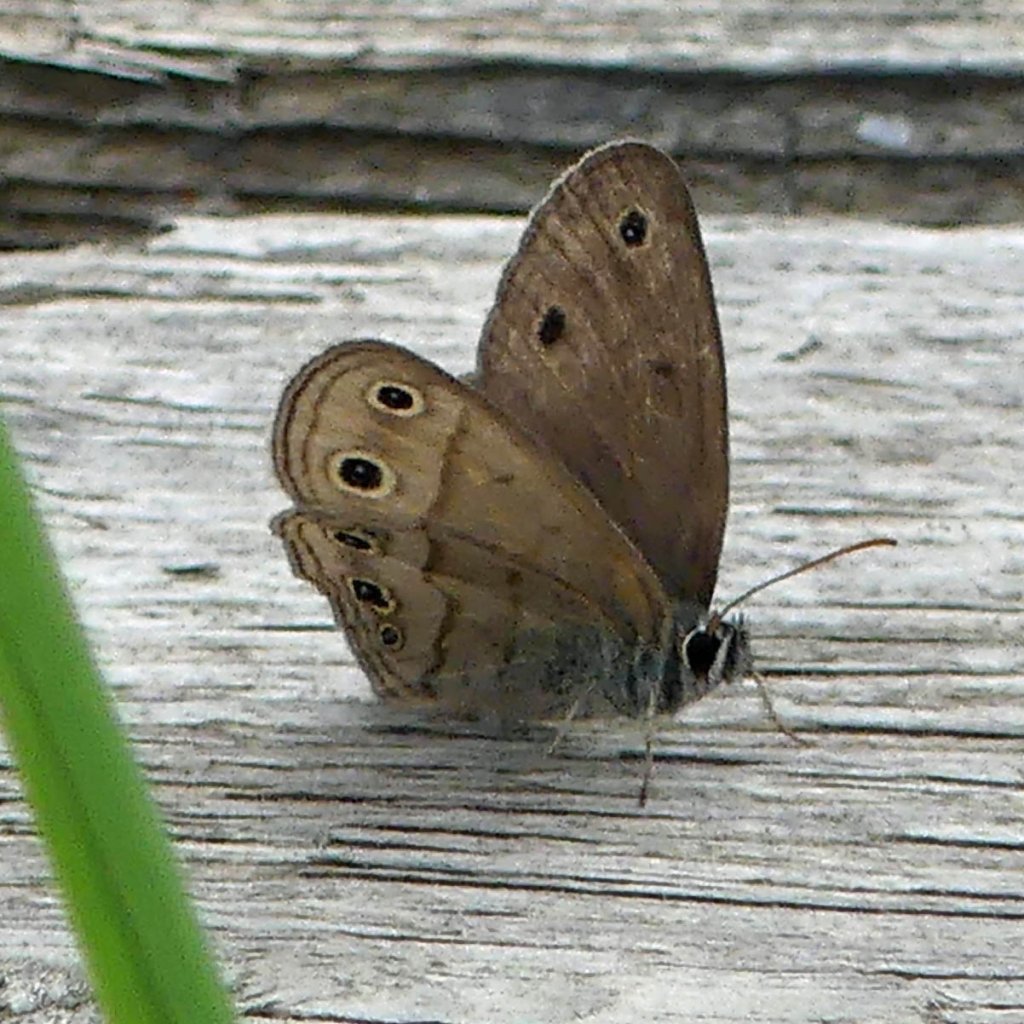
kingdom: Animalia
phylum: Arthropoda
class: Insecta
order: Lepidoptera
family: Nymphalidae
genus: Euptychia
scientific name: Euptychia cymela
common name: Little Wood Satyr
